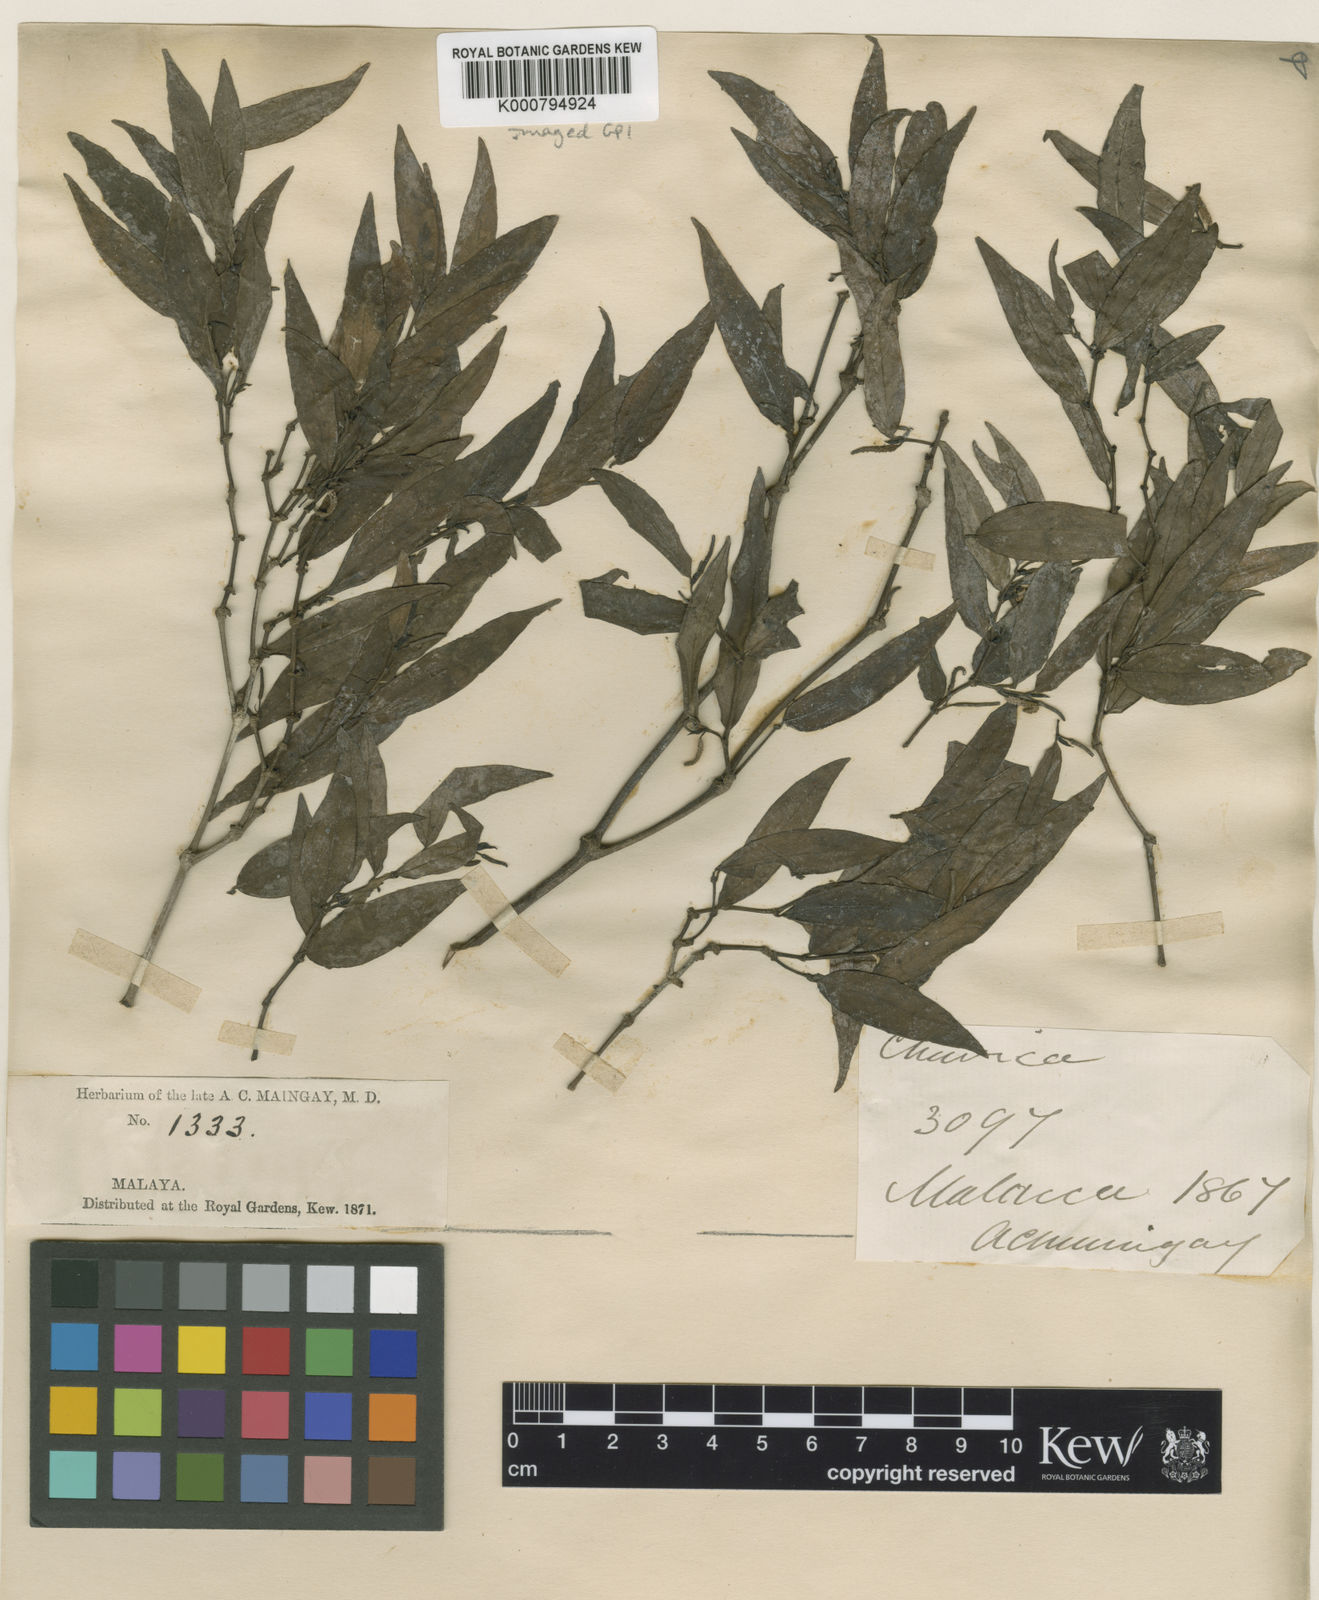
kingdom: Plantae
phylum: Tracheophyta
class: Magnoliopsida
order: Piperales
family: Piperaceae
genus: Piper
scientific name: Piper lanatum
